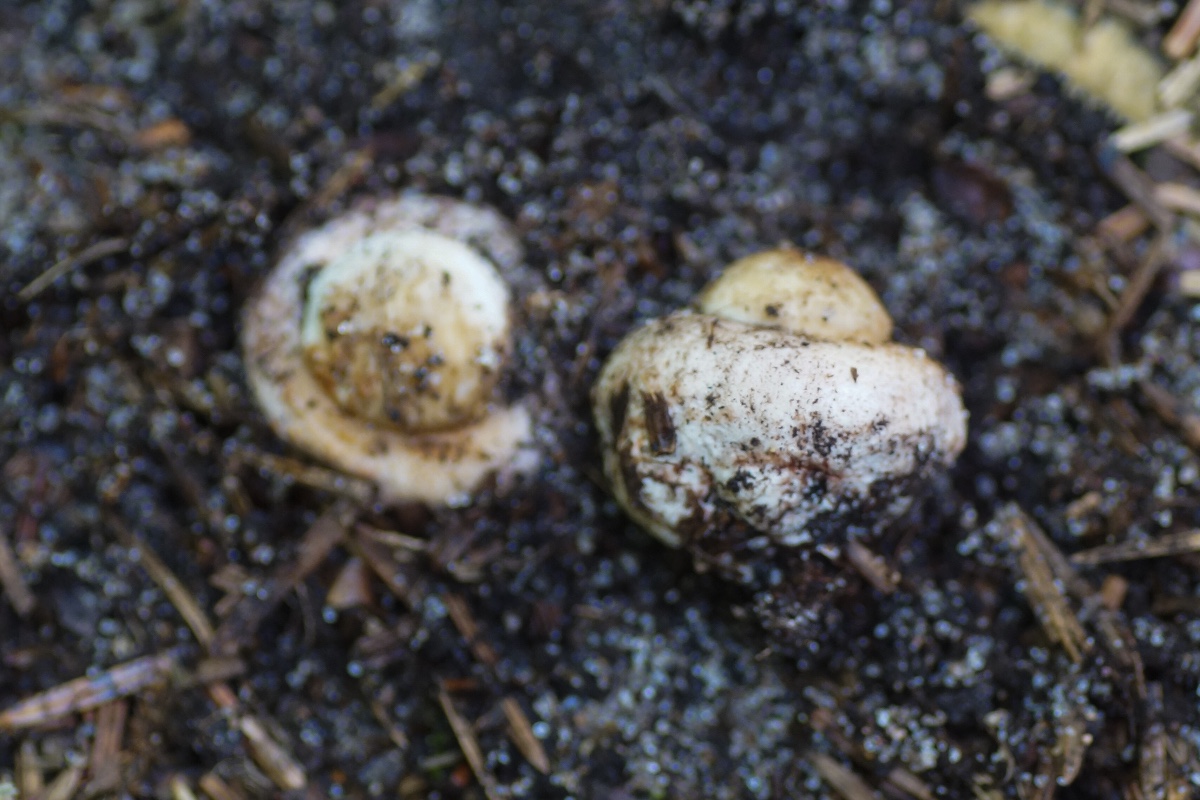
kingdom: Fungi
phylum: Basidiomycota
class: Agaricomycetes
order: Agaricales
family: Amanitaceae
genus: Amanita
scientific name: Amanita rubescens
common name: rødmende fluesvamp
